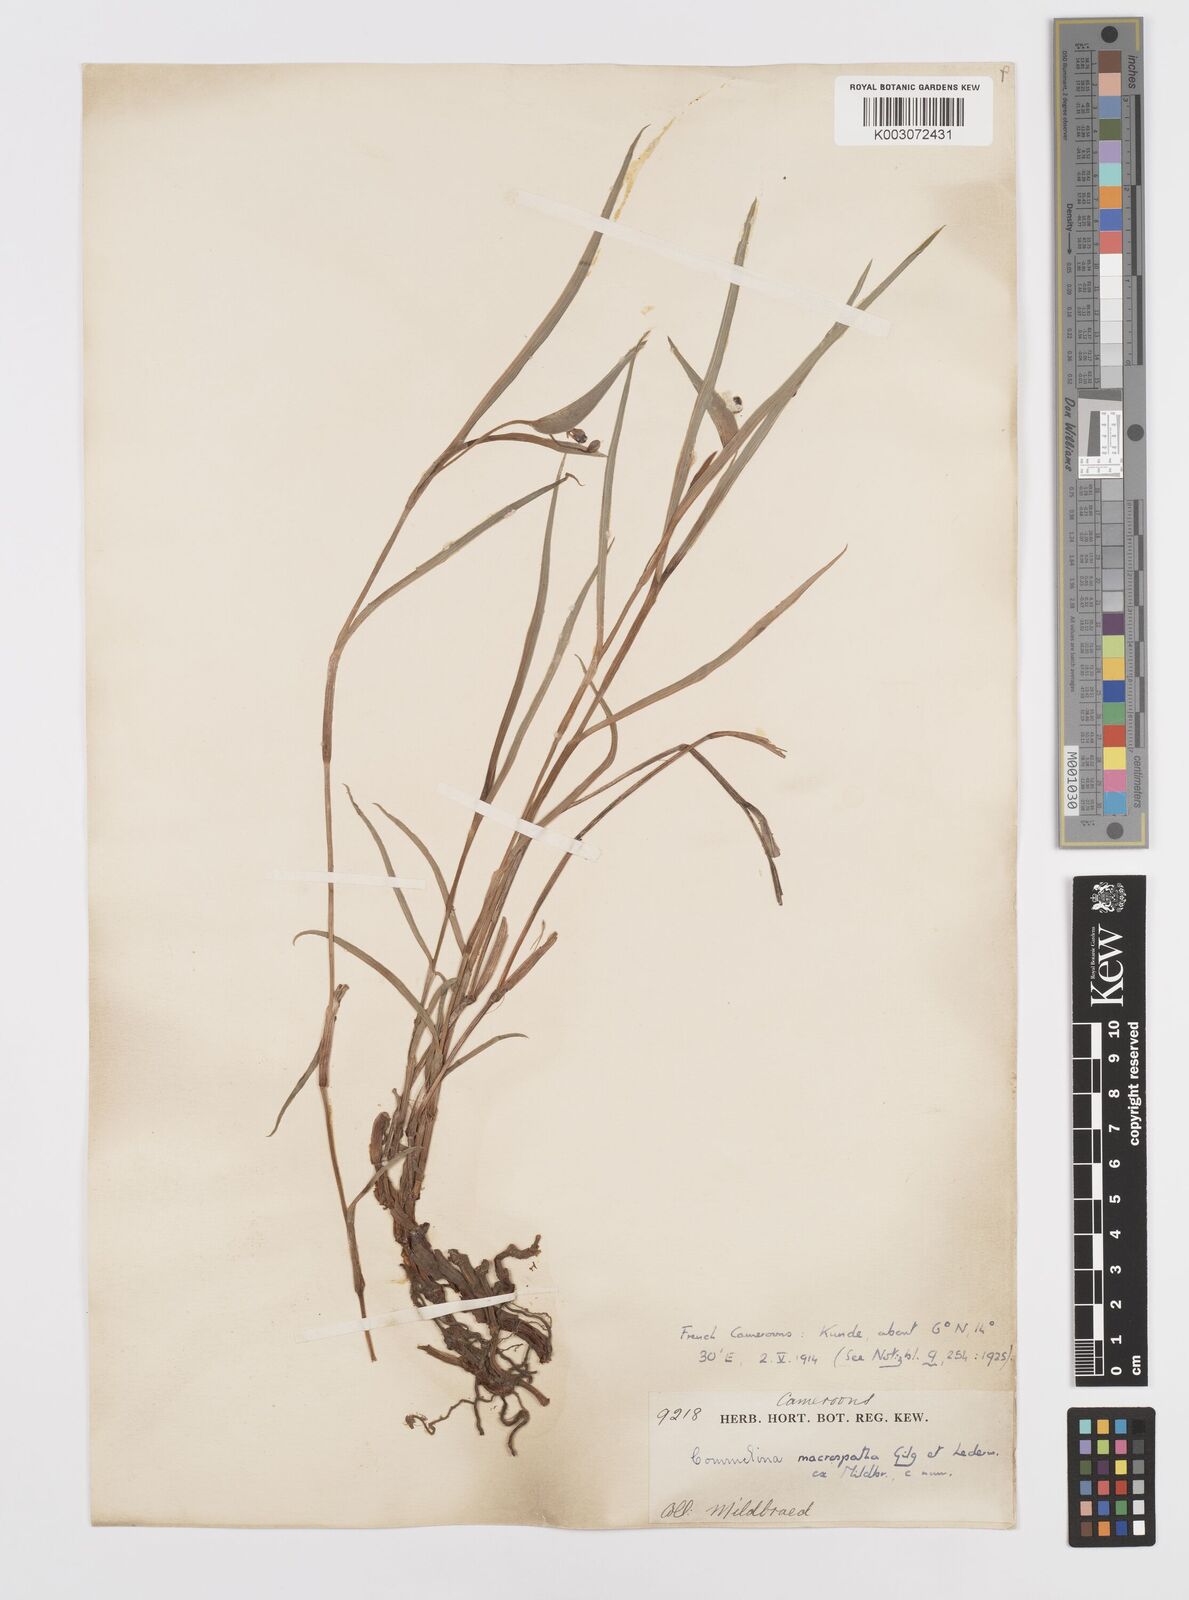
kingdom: Plantae
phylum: Tracheophyta
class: Liliopsida
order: Commelinales
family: Commelinaceae
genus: Commelina
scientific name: Commelina macrospatha
